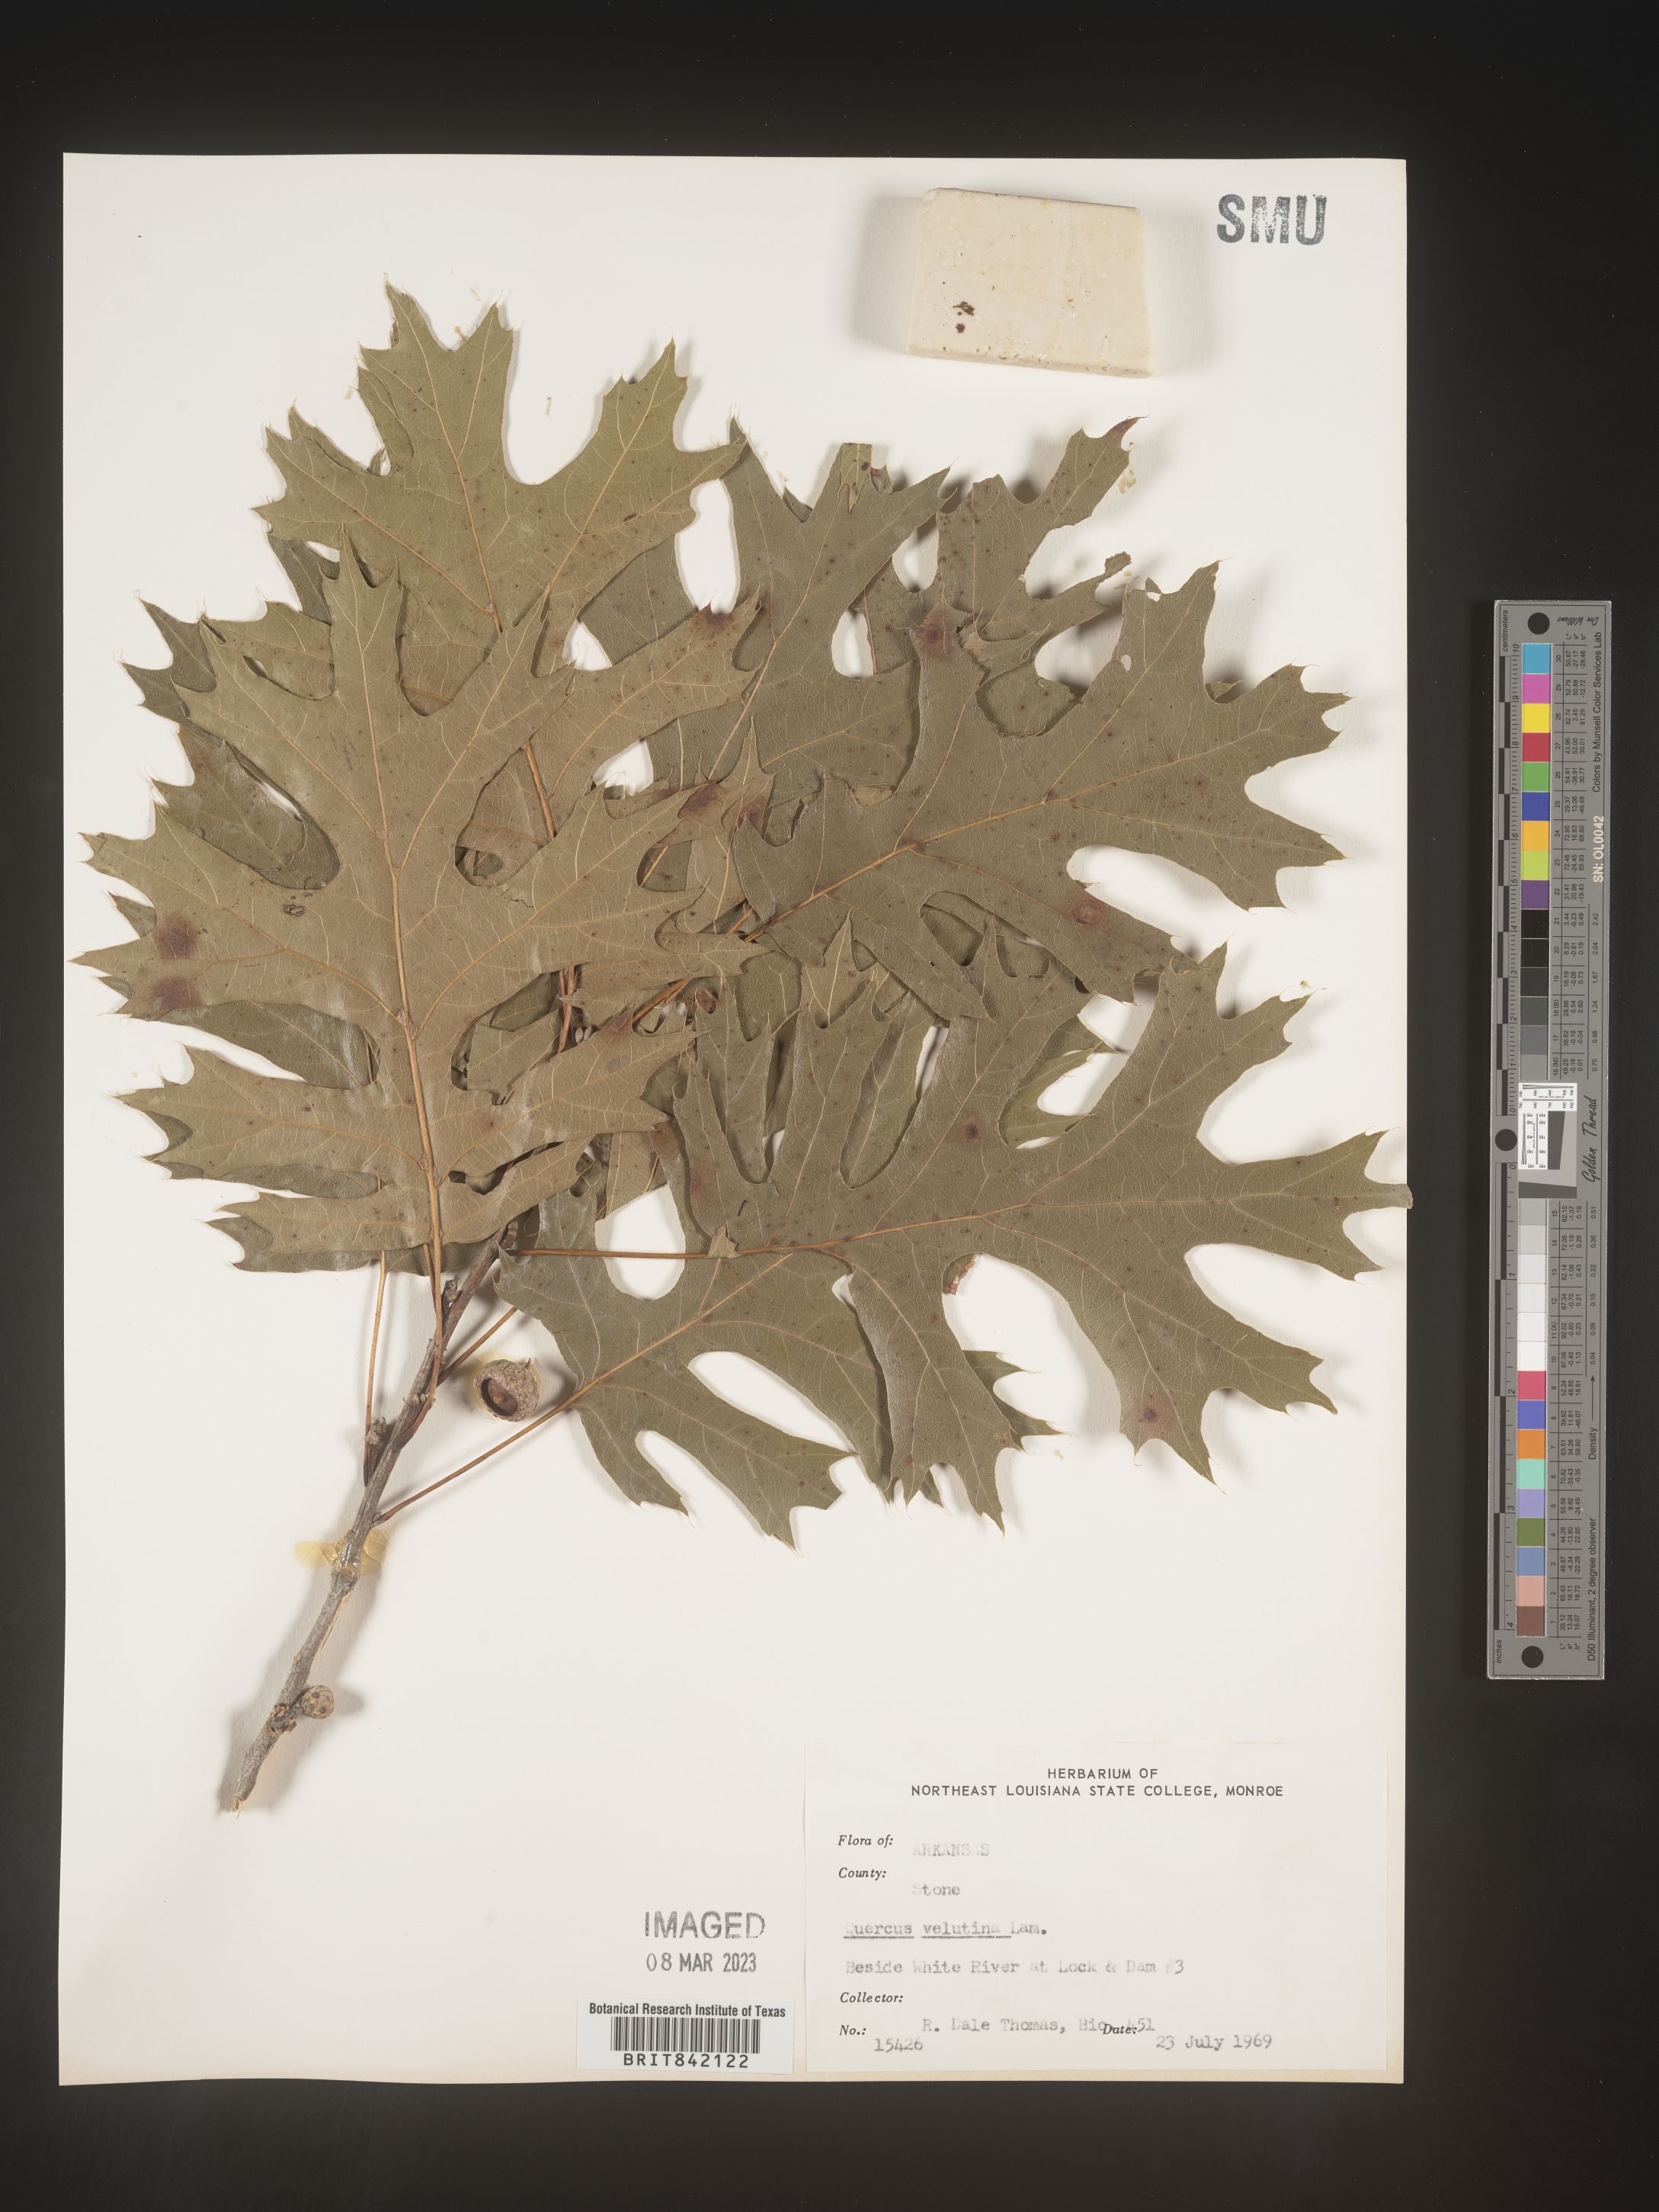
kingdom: Plantae
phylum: Tracheophyta
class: Magnoliopsida
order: Fagales
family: Fagaceae
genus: Quercus
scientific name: Quercus velutina
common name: Black oak
